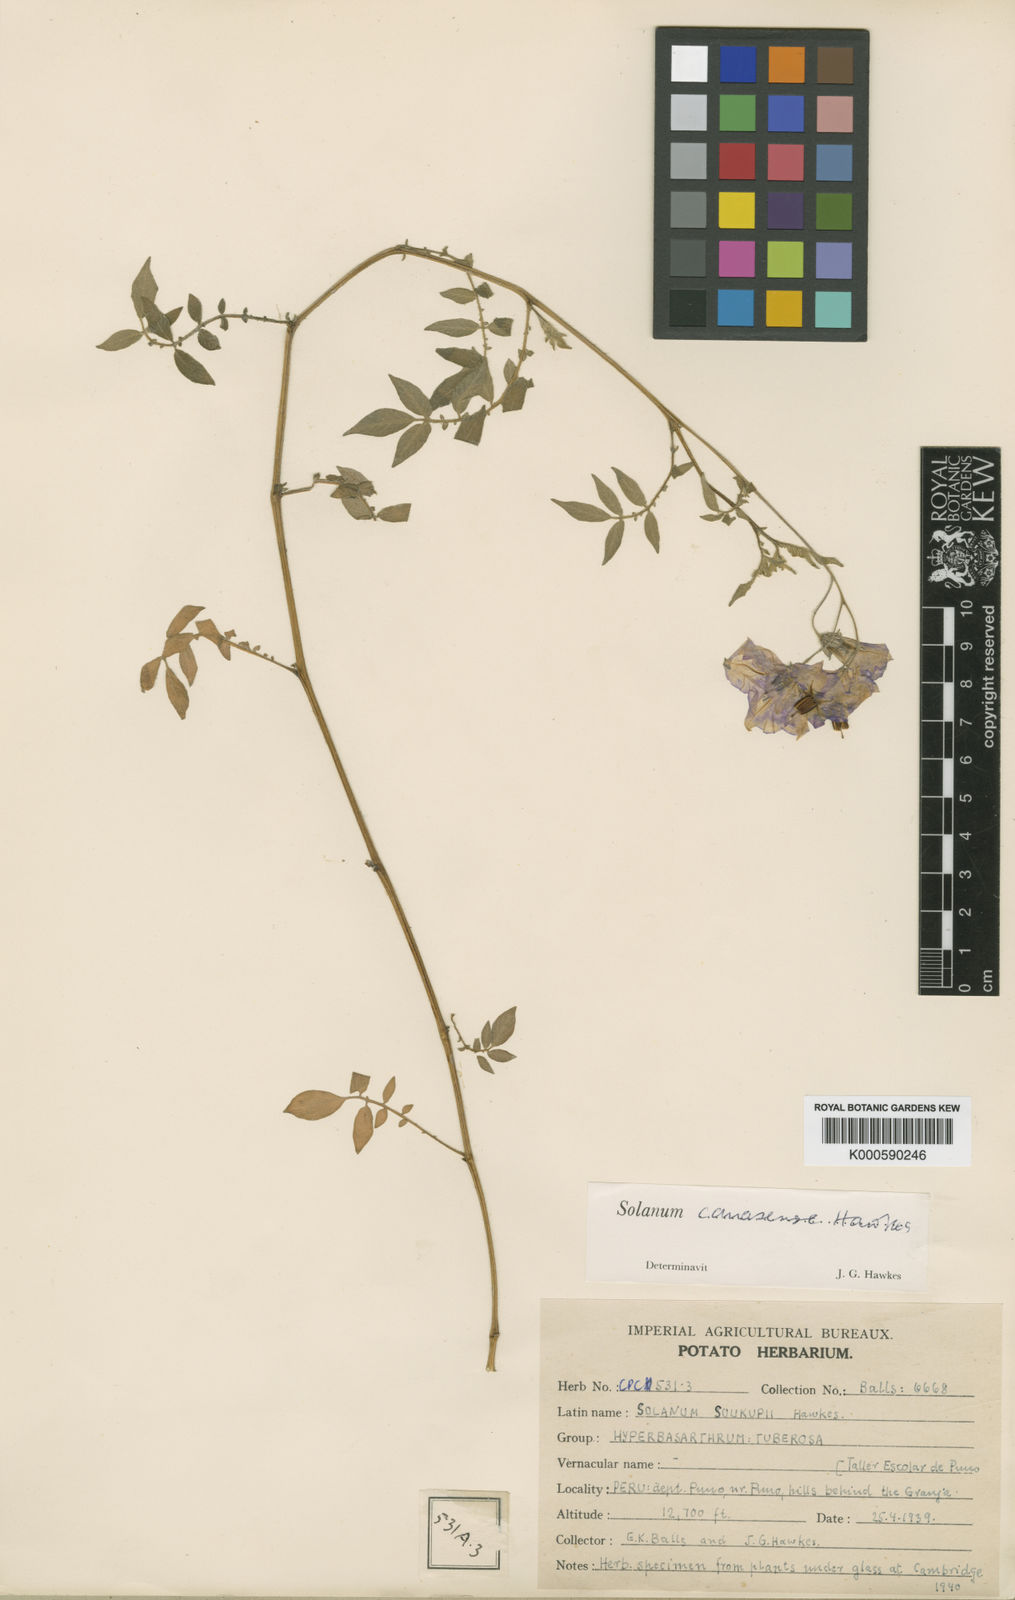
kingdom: Plantae
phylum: Tracheophyta
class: Magnoliopsida
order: Solanales
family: Solanaceae
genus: Solanum
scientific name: Solanum candolleanum
